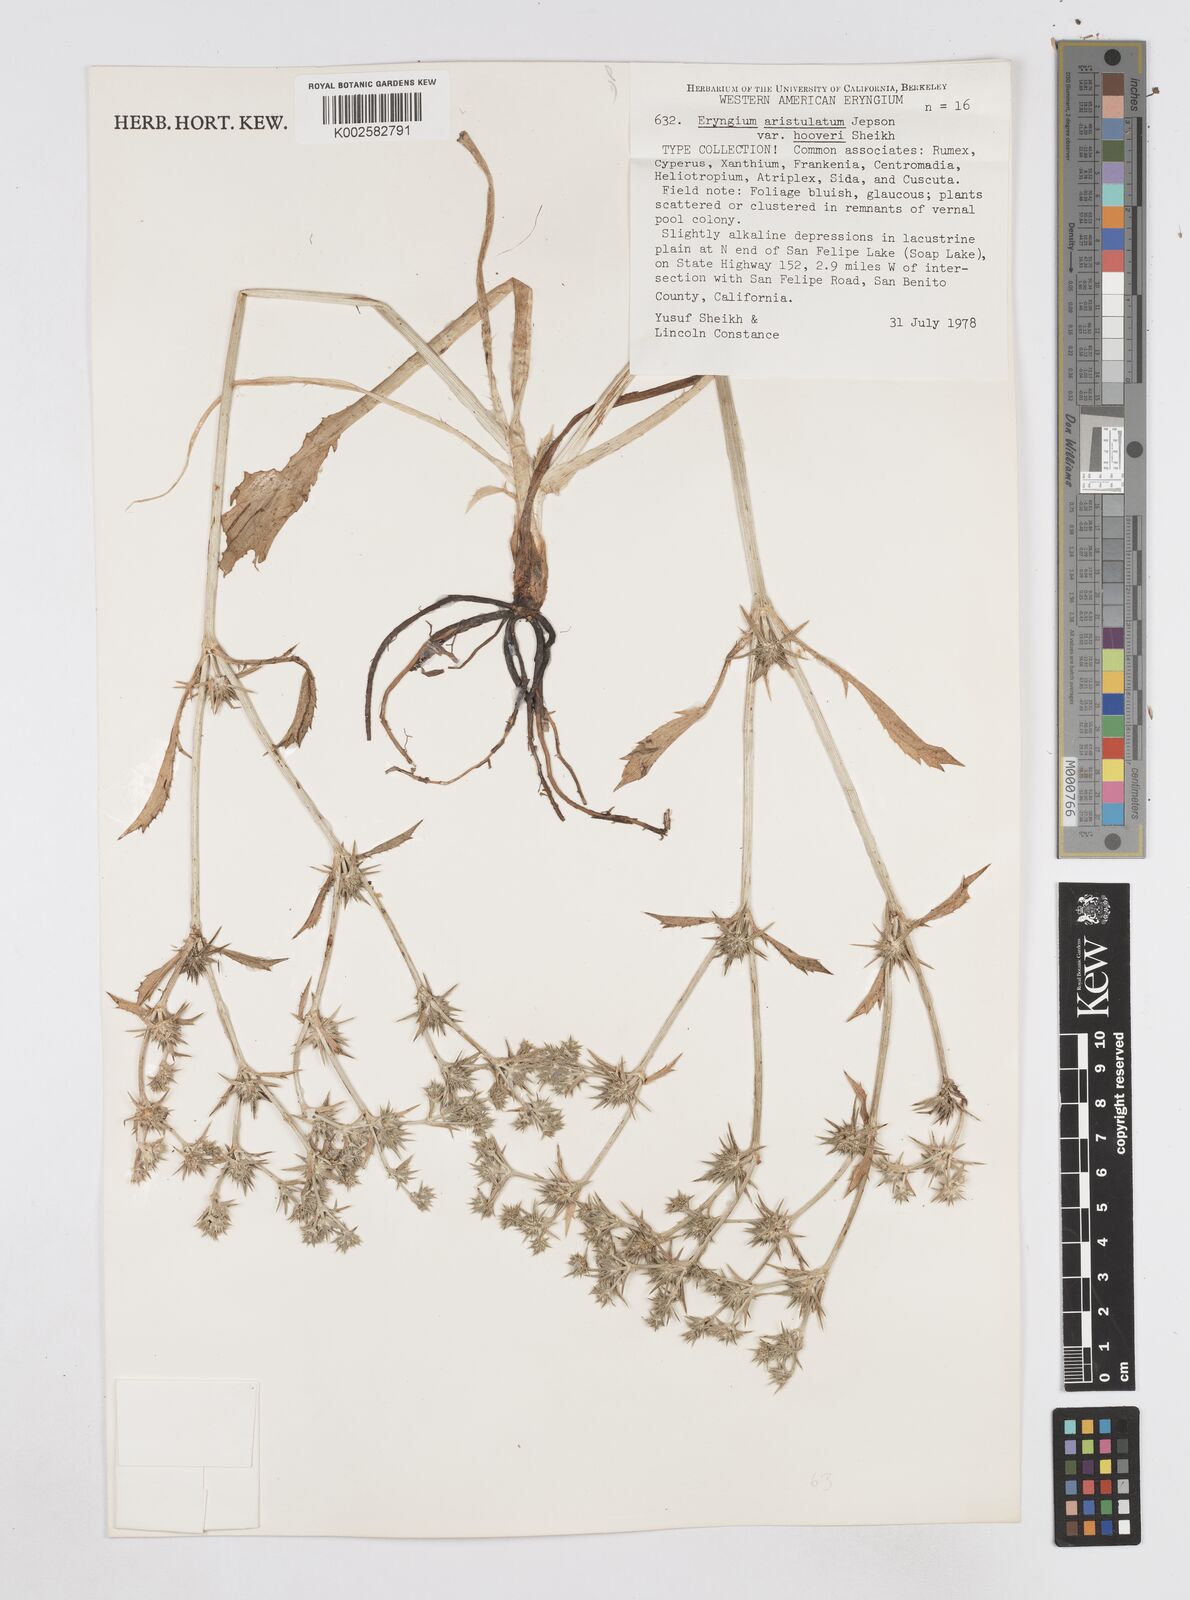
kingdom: Plantae
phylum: Tracheophyta
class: Magnoliopsida
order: Apiales
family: Apiaceae
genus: Eryngium
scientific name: Eryngium aristulatum
